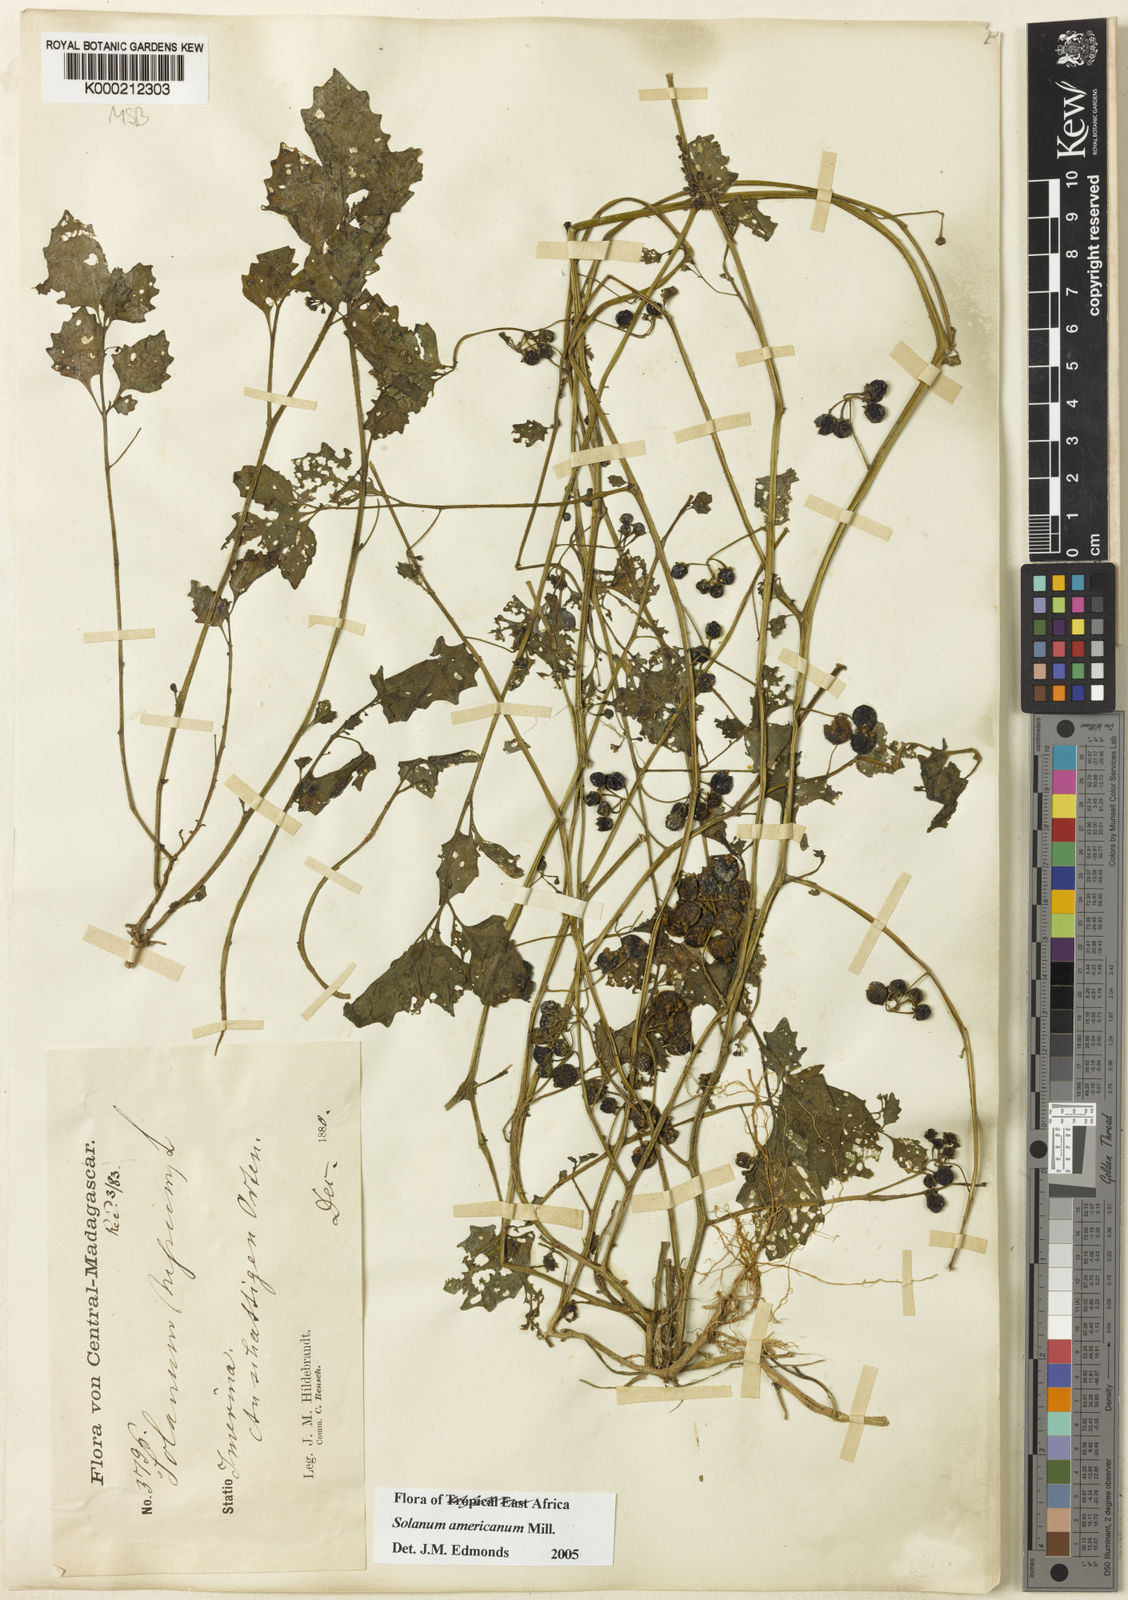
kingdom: Plantae
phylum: Tracheophyta
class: Magnoliopsida
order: Solanales
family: Solanaceae
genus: Solanum
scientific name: Solanum americanum
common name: American black nightshade
